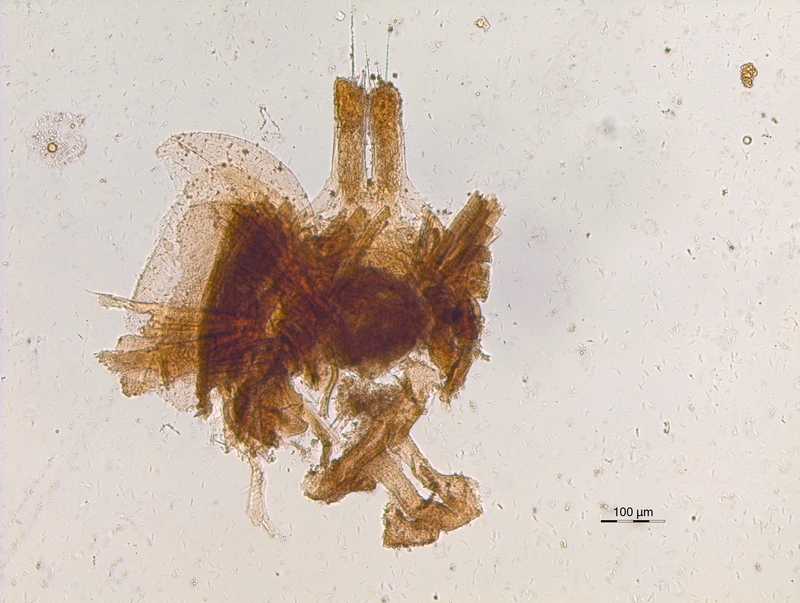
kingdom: Animalia
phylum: Arthropoda
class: Diplopoda
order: Chordeumatida
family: Chordeumatidae
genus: Melogona
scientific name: Melogona voigtii
